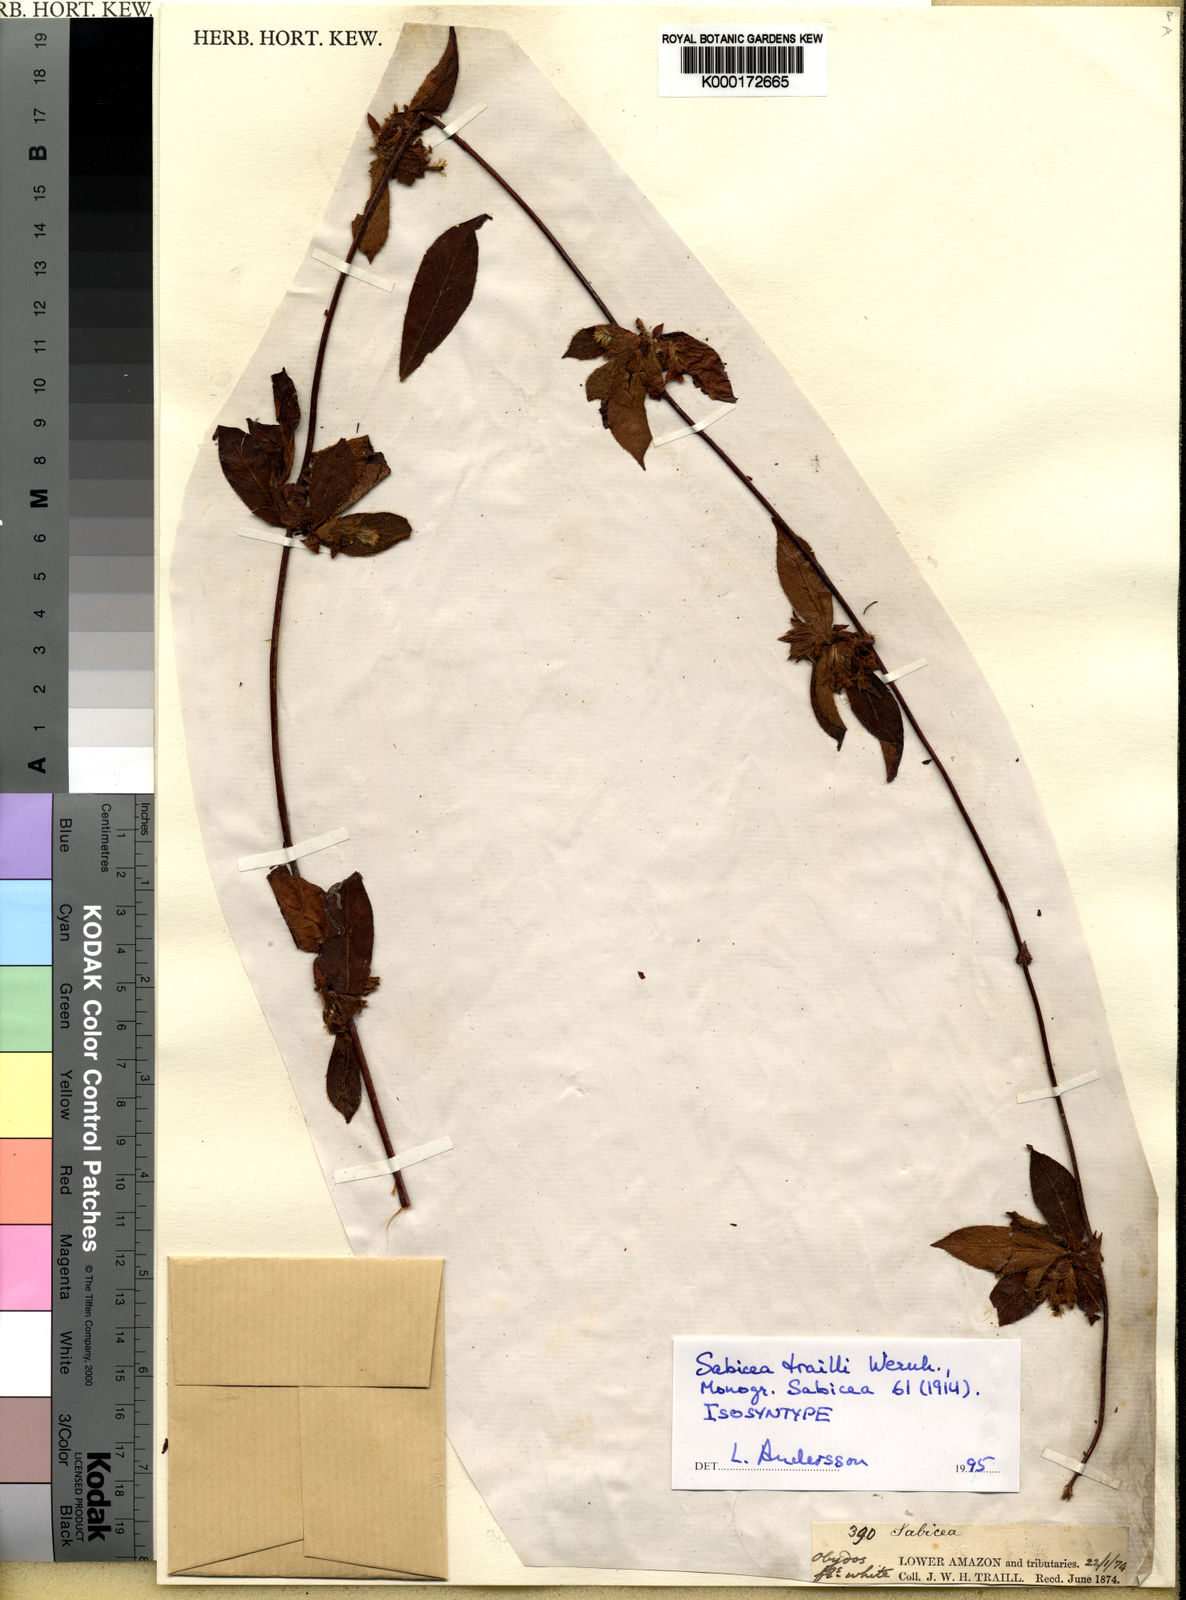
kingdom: Plantae
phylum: Tracheophyta
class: Magnoliopsida
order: Gentianales
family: Rubiaceae
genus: Sabicea
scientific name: Sabicea trailii
